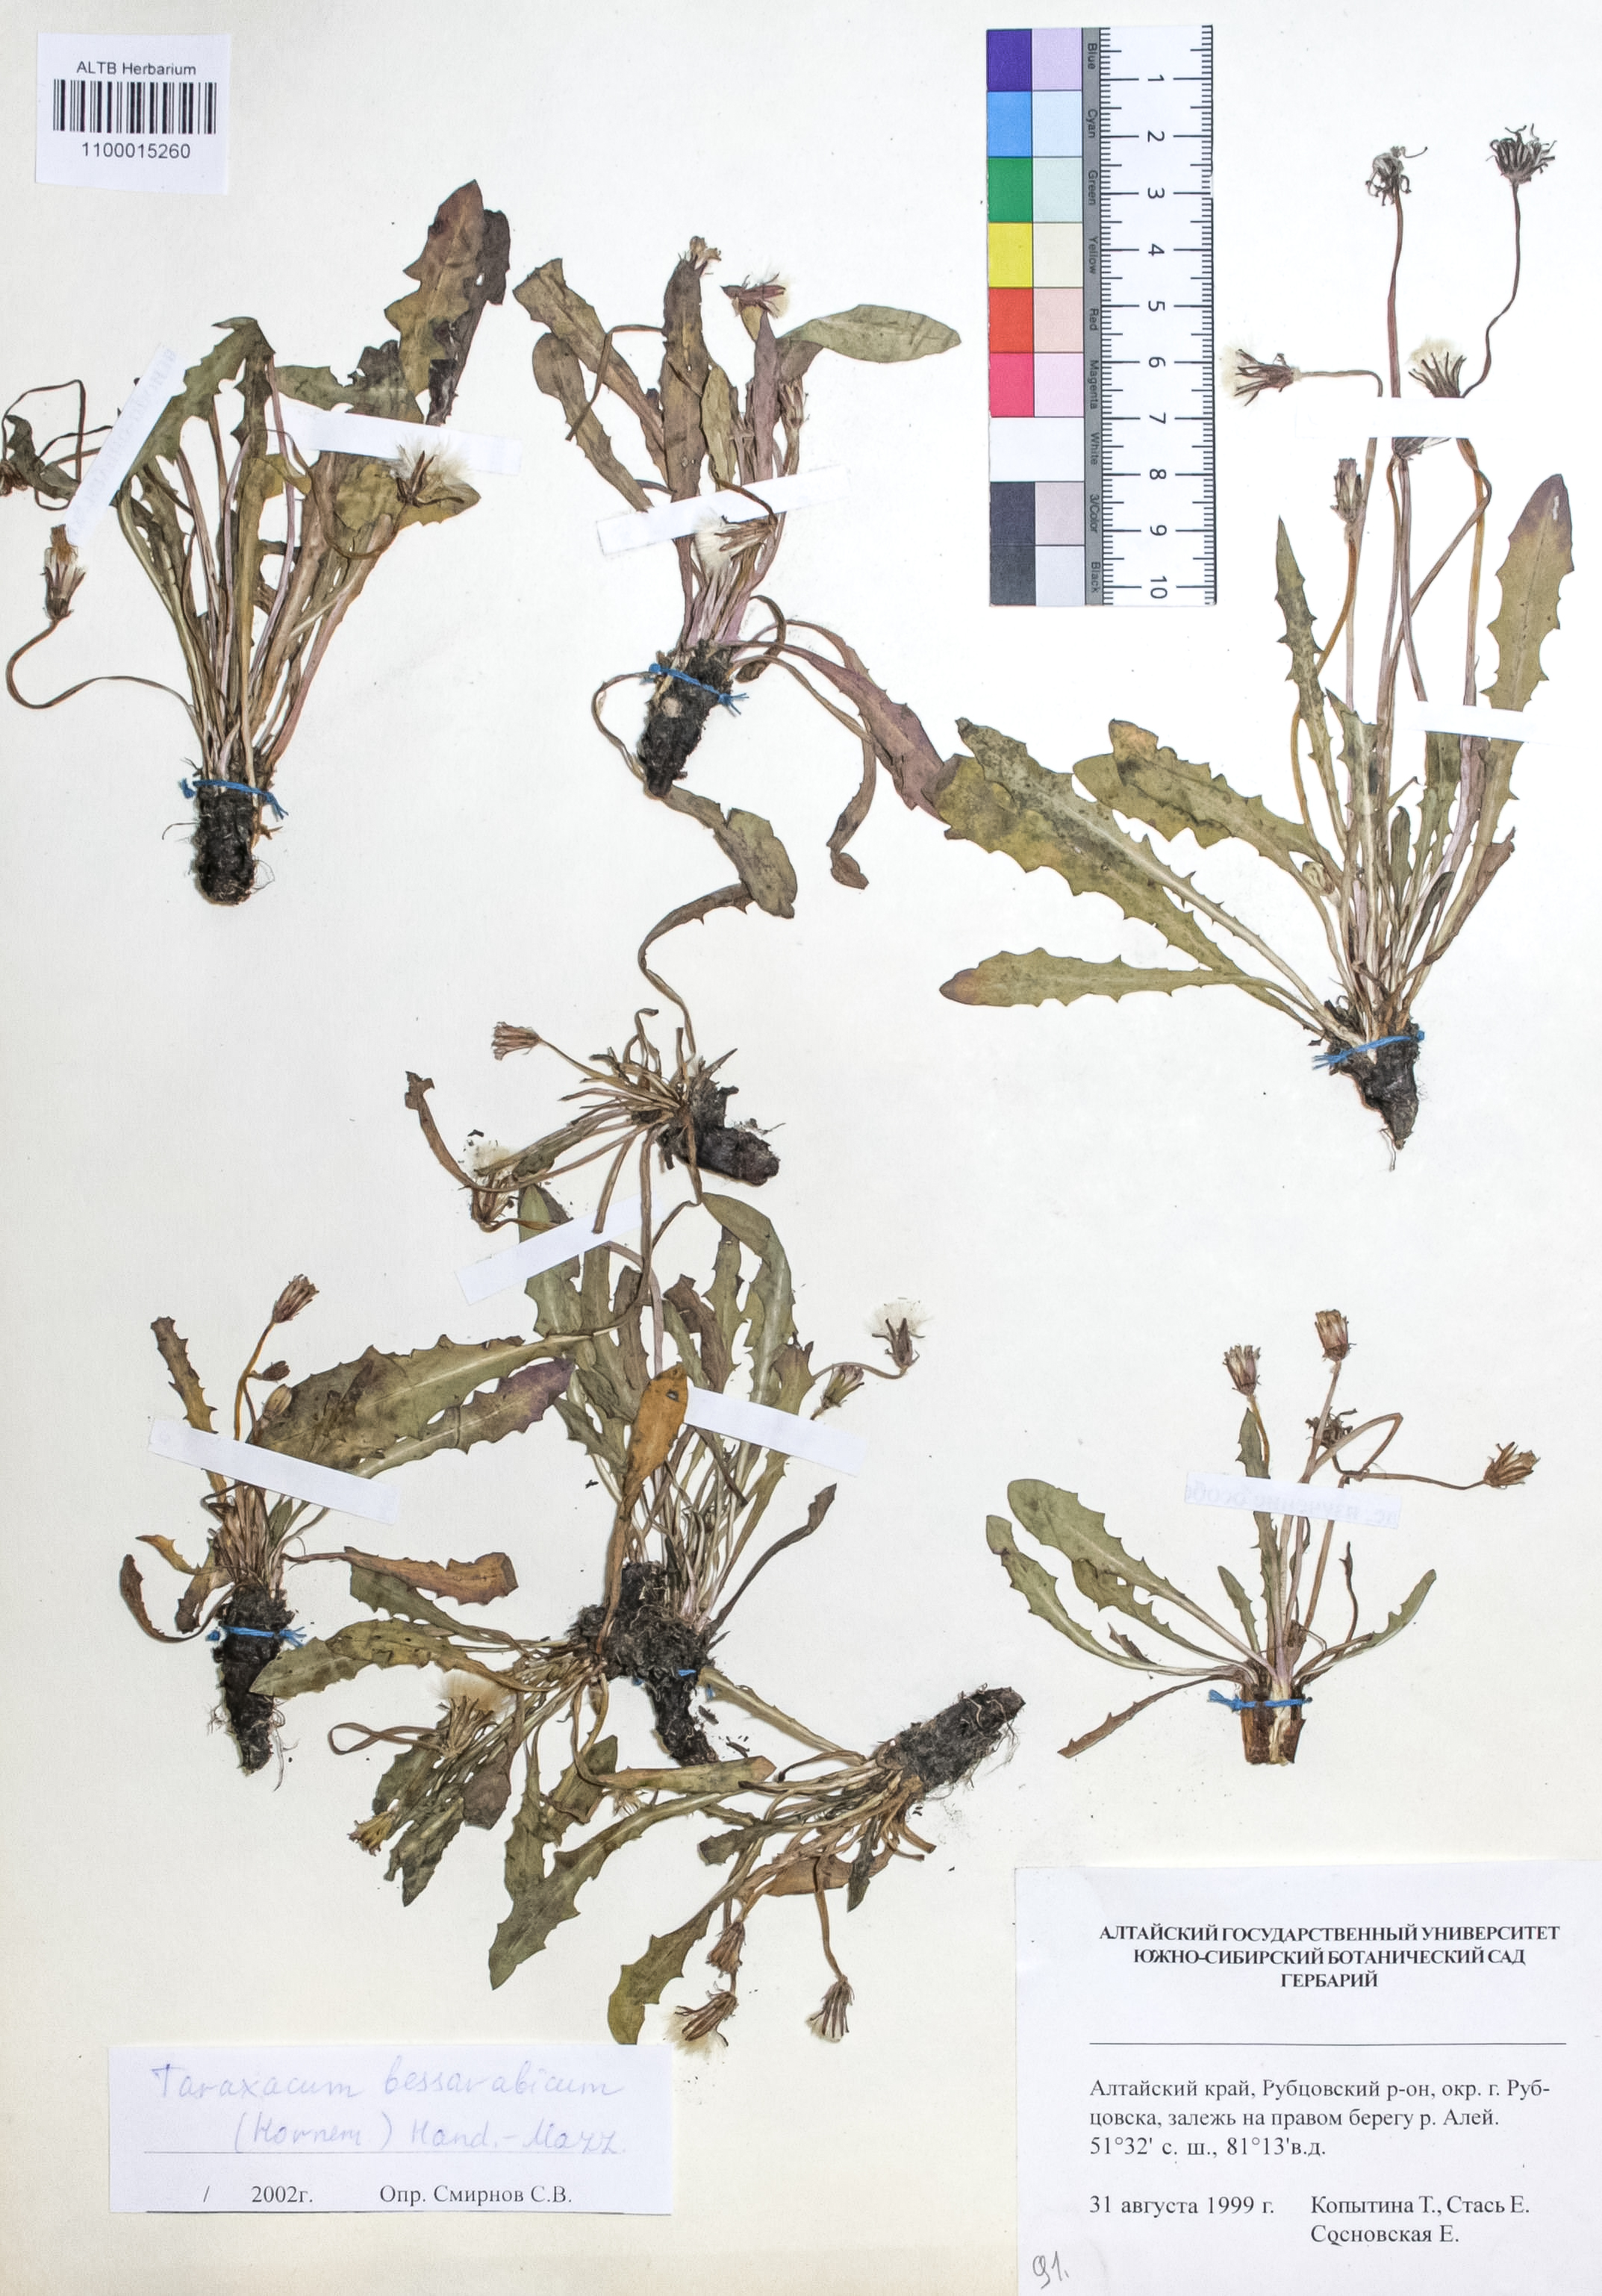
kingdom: Plantae
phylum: Tracheophyta
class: Magnoliopsida
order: Asterales
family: Asteraceae
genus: Taraxacum
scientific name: Taraxacum bessarabicum
